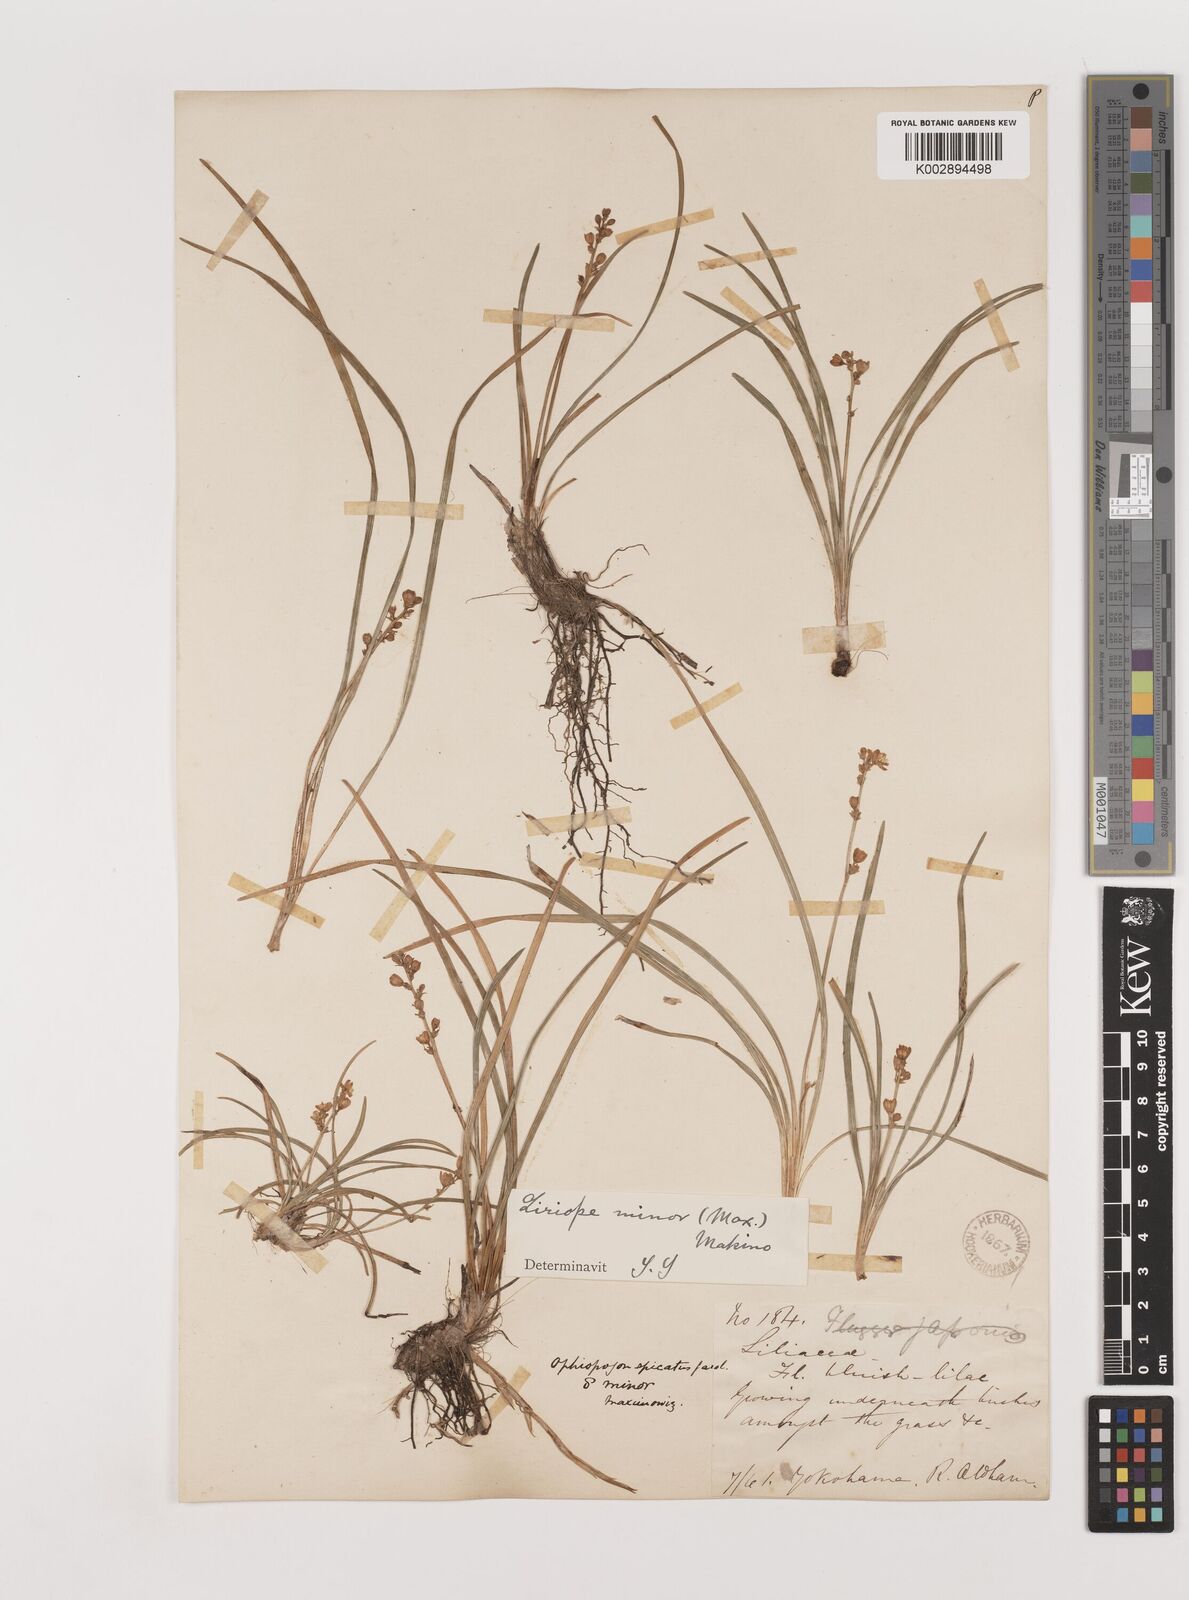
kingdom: Plantae
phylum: Tracheophyta
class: Liliopsida
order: Asparagales
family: Asparagaceae
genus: Liriope
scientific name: Liriope minor
